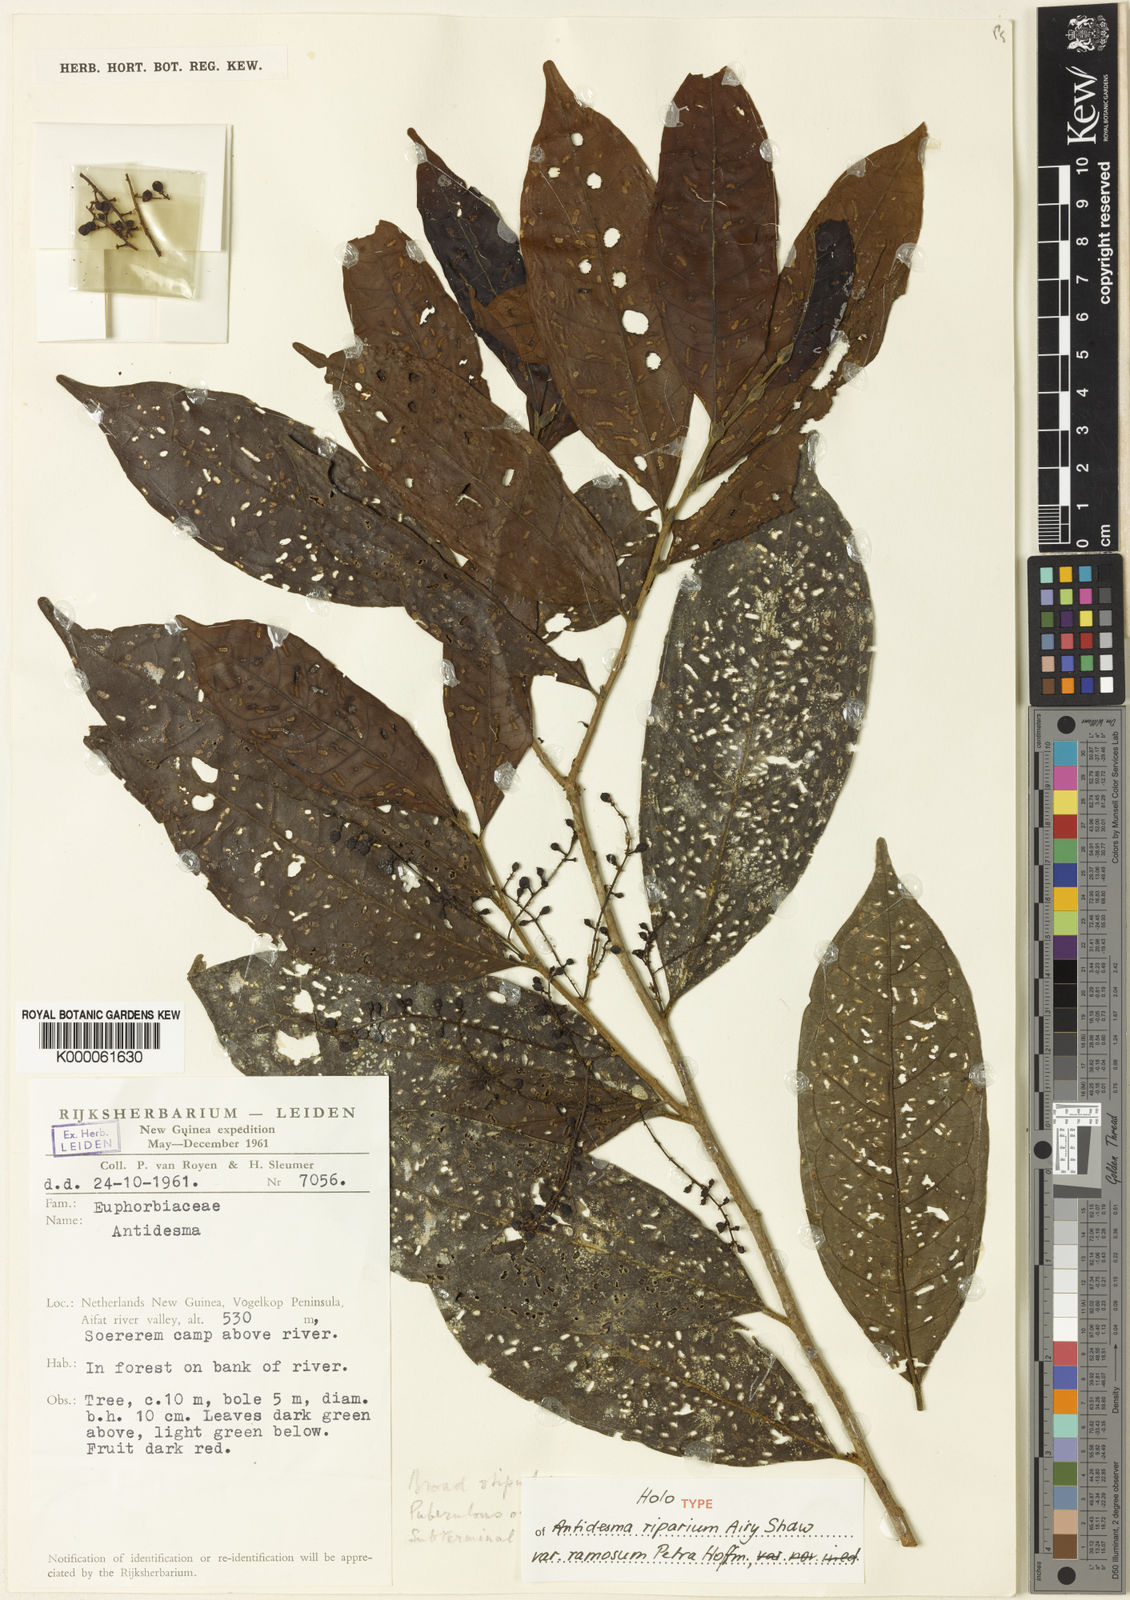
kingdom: Plantae
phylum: Tracheophyta
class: Magnoliopsida
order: Malpighiales
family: Phyllanthaceae
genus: Antidesma
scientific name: Antidesma riparium
